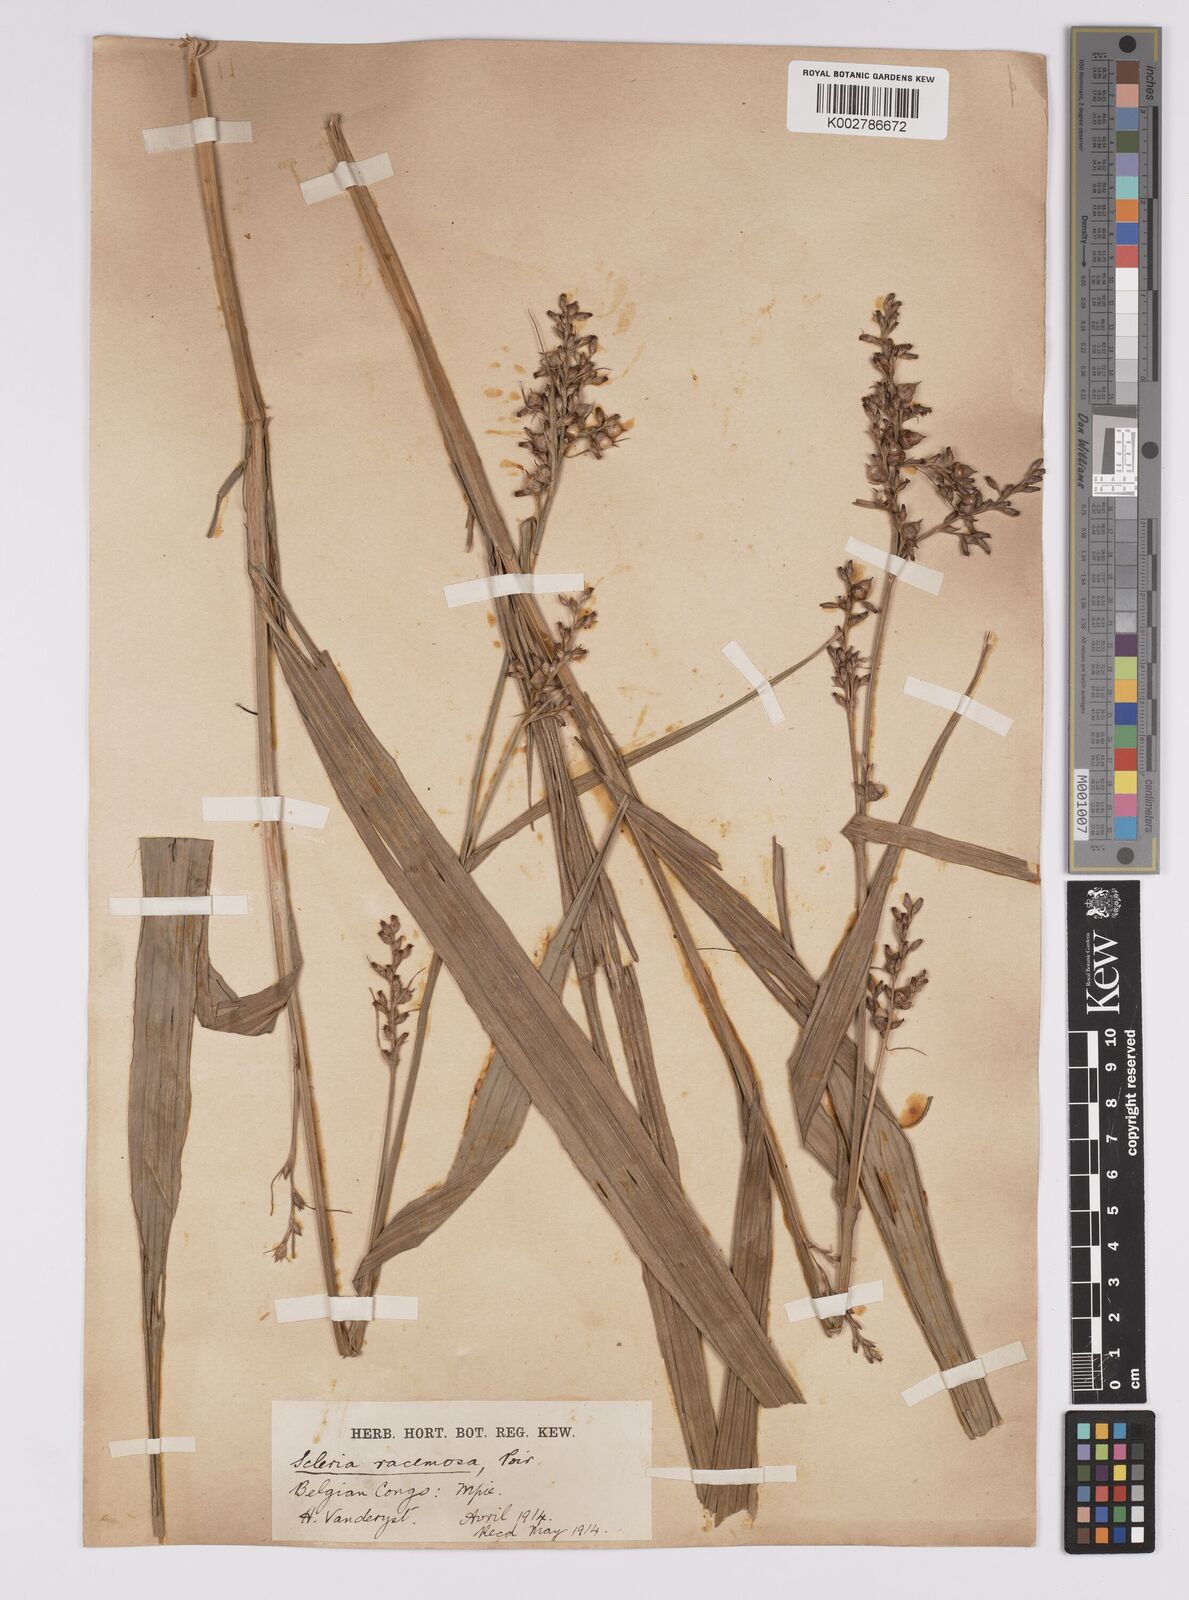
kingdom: Plantae
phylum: Tracheophyta
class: Liliopsida
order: Poales
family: Cyperaceae
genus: Scleria
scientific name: Scleria racemosa
